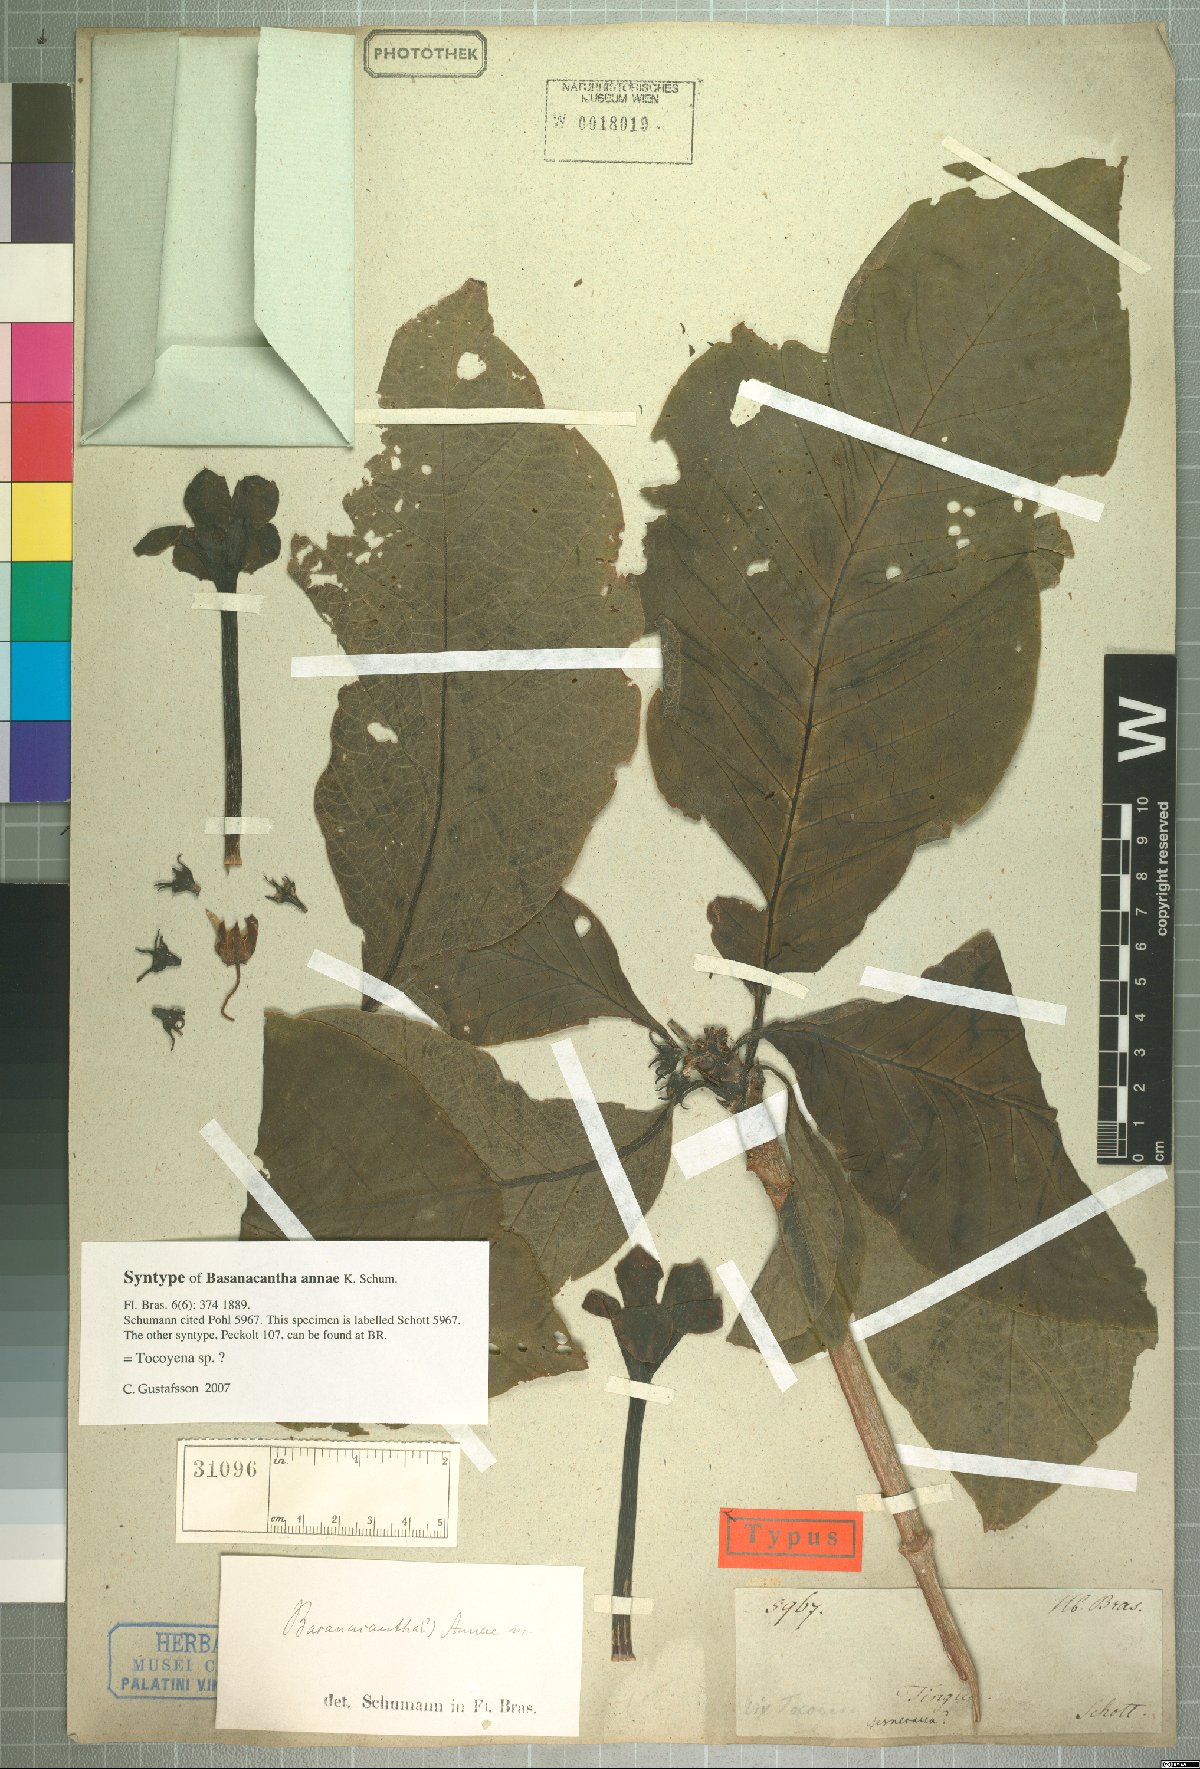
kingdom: Plantae
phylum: Tracheophyta
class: Magnoliopsida
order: Gentianales
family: Rubiaceae
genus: Tocoyena
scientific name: Tocoyena
